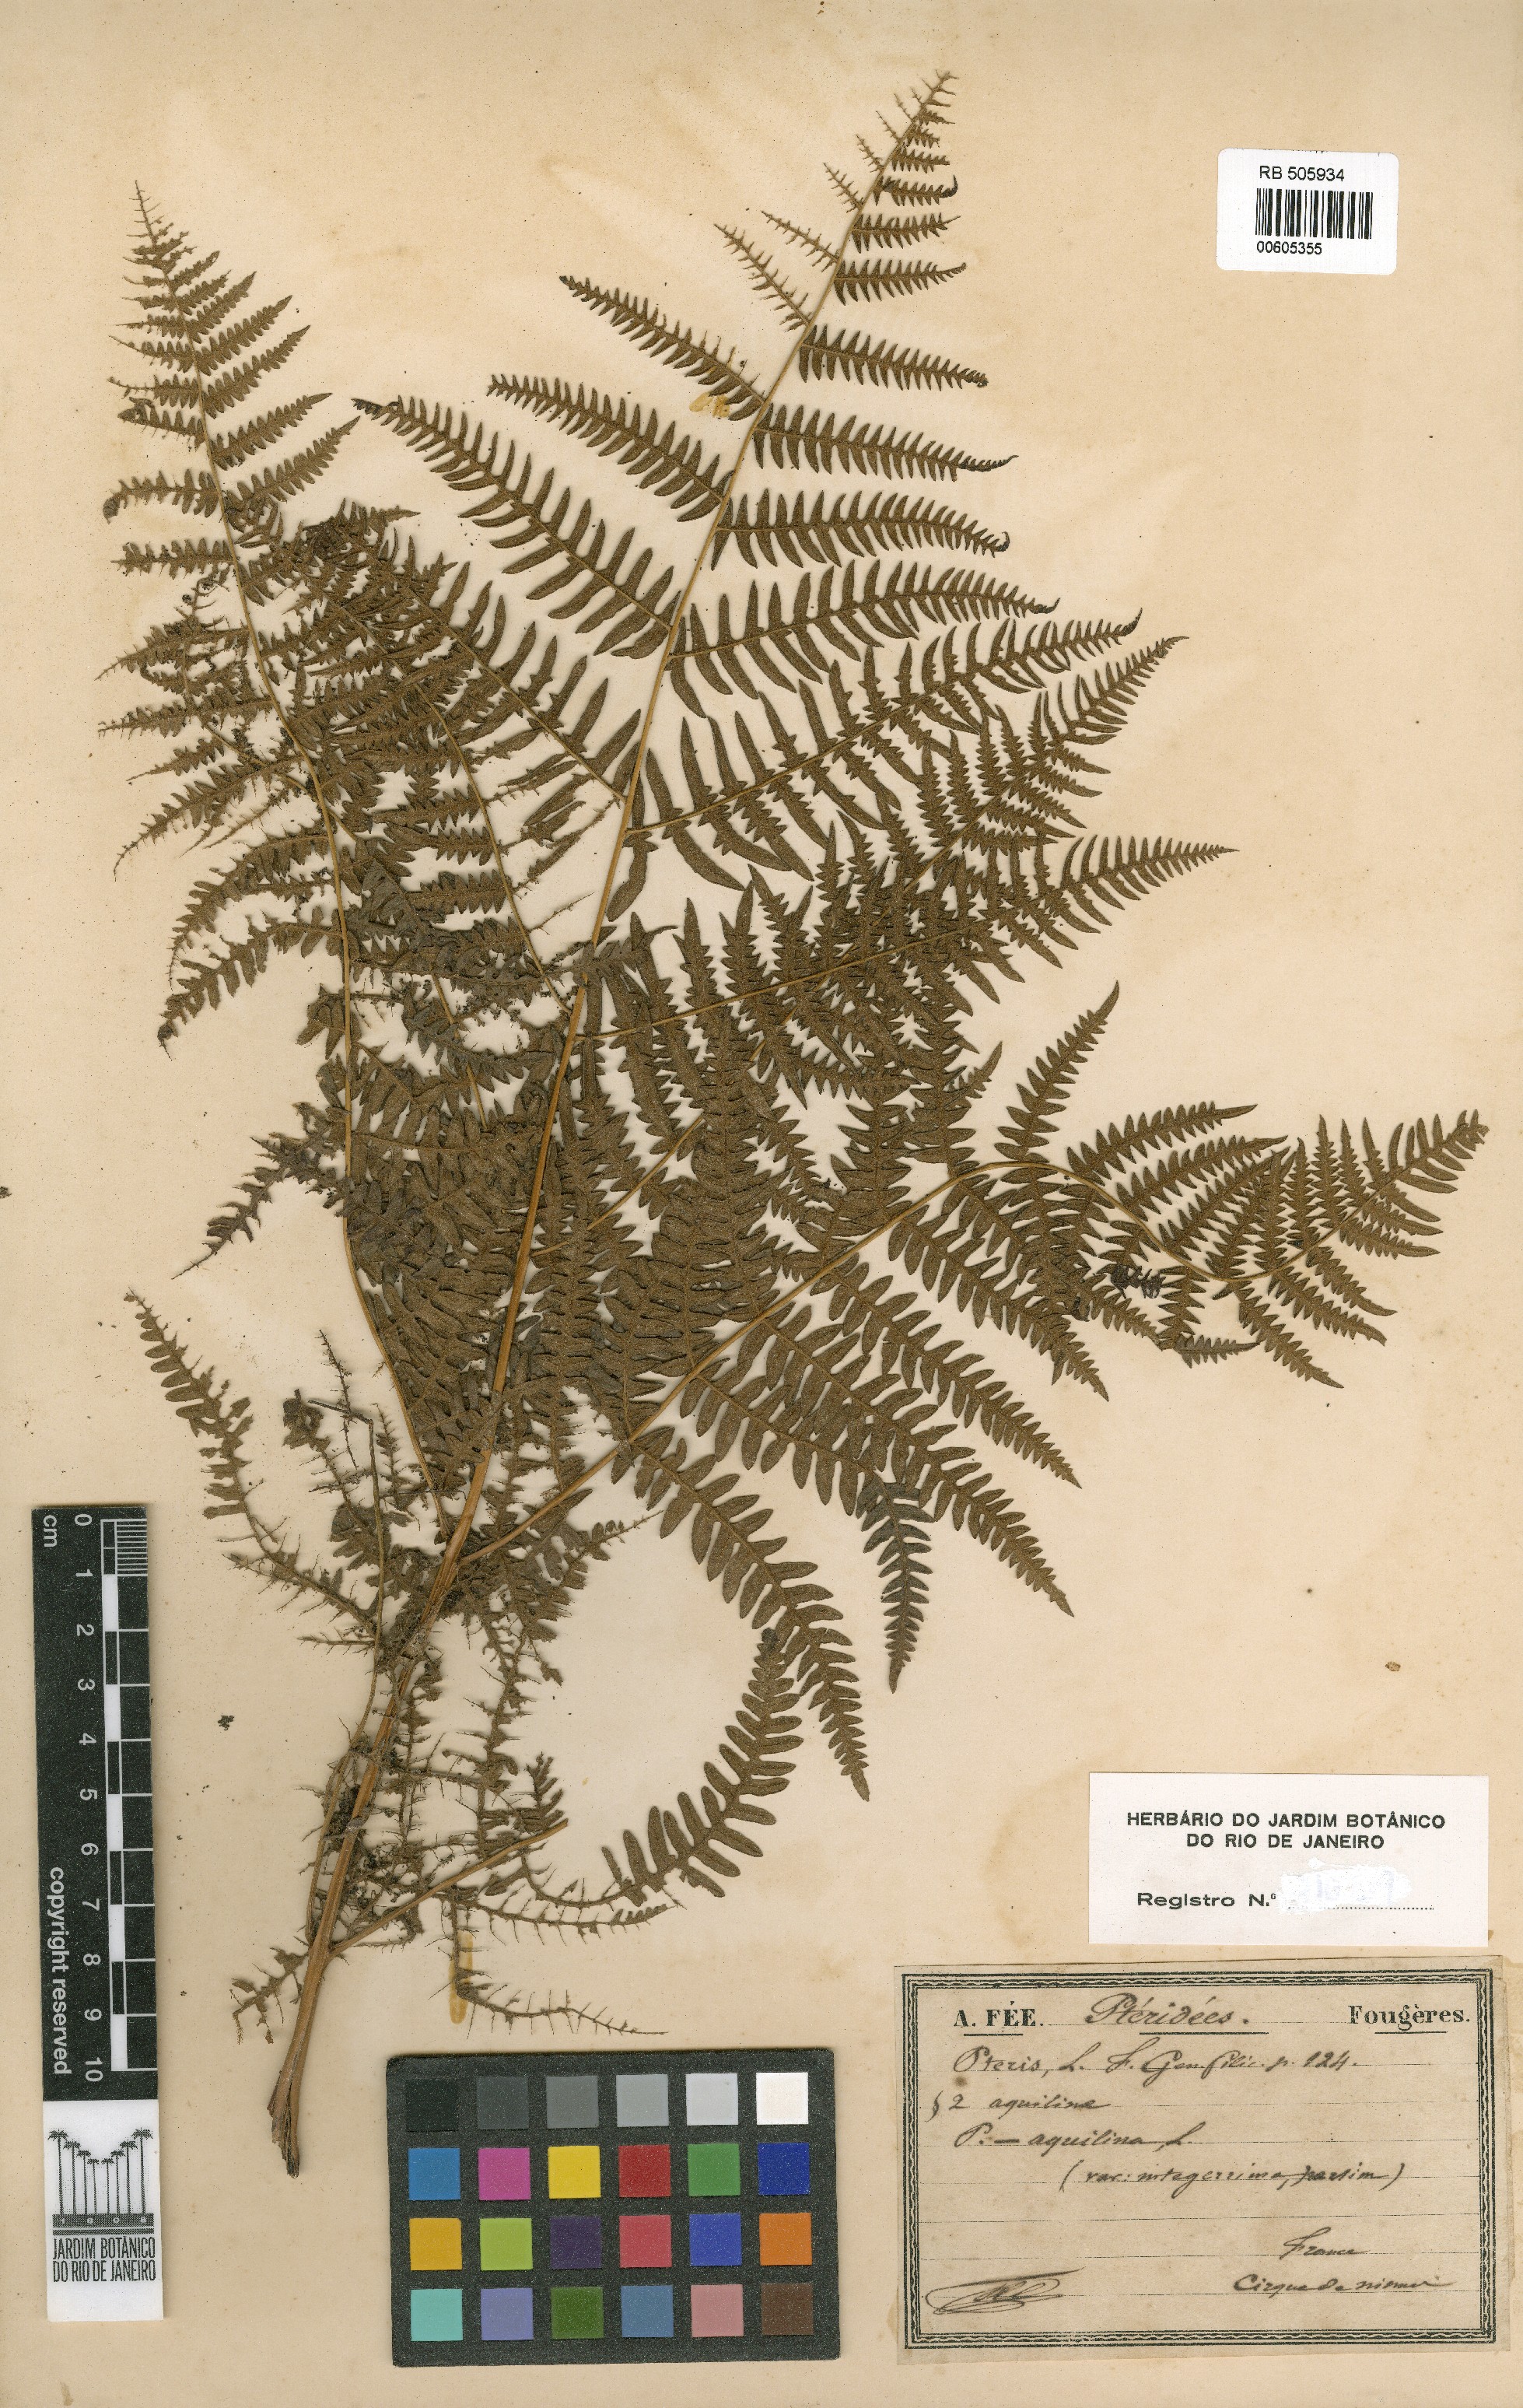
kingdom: Plantae
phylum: Tracheophyta
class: Polypodiopsida
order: Polypodiales
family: Dennstaedtiaceae
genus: Pteridium
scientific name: Pteridium aquilinum
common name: Bracken
